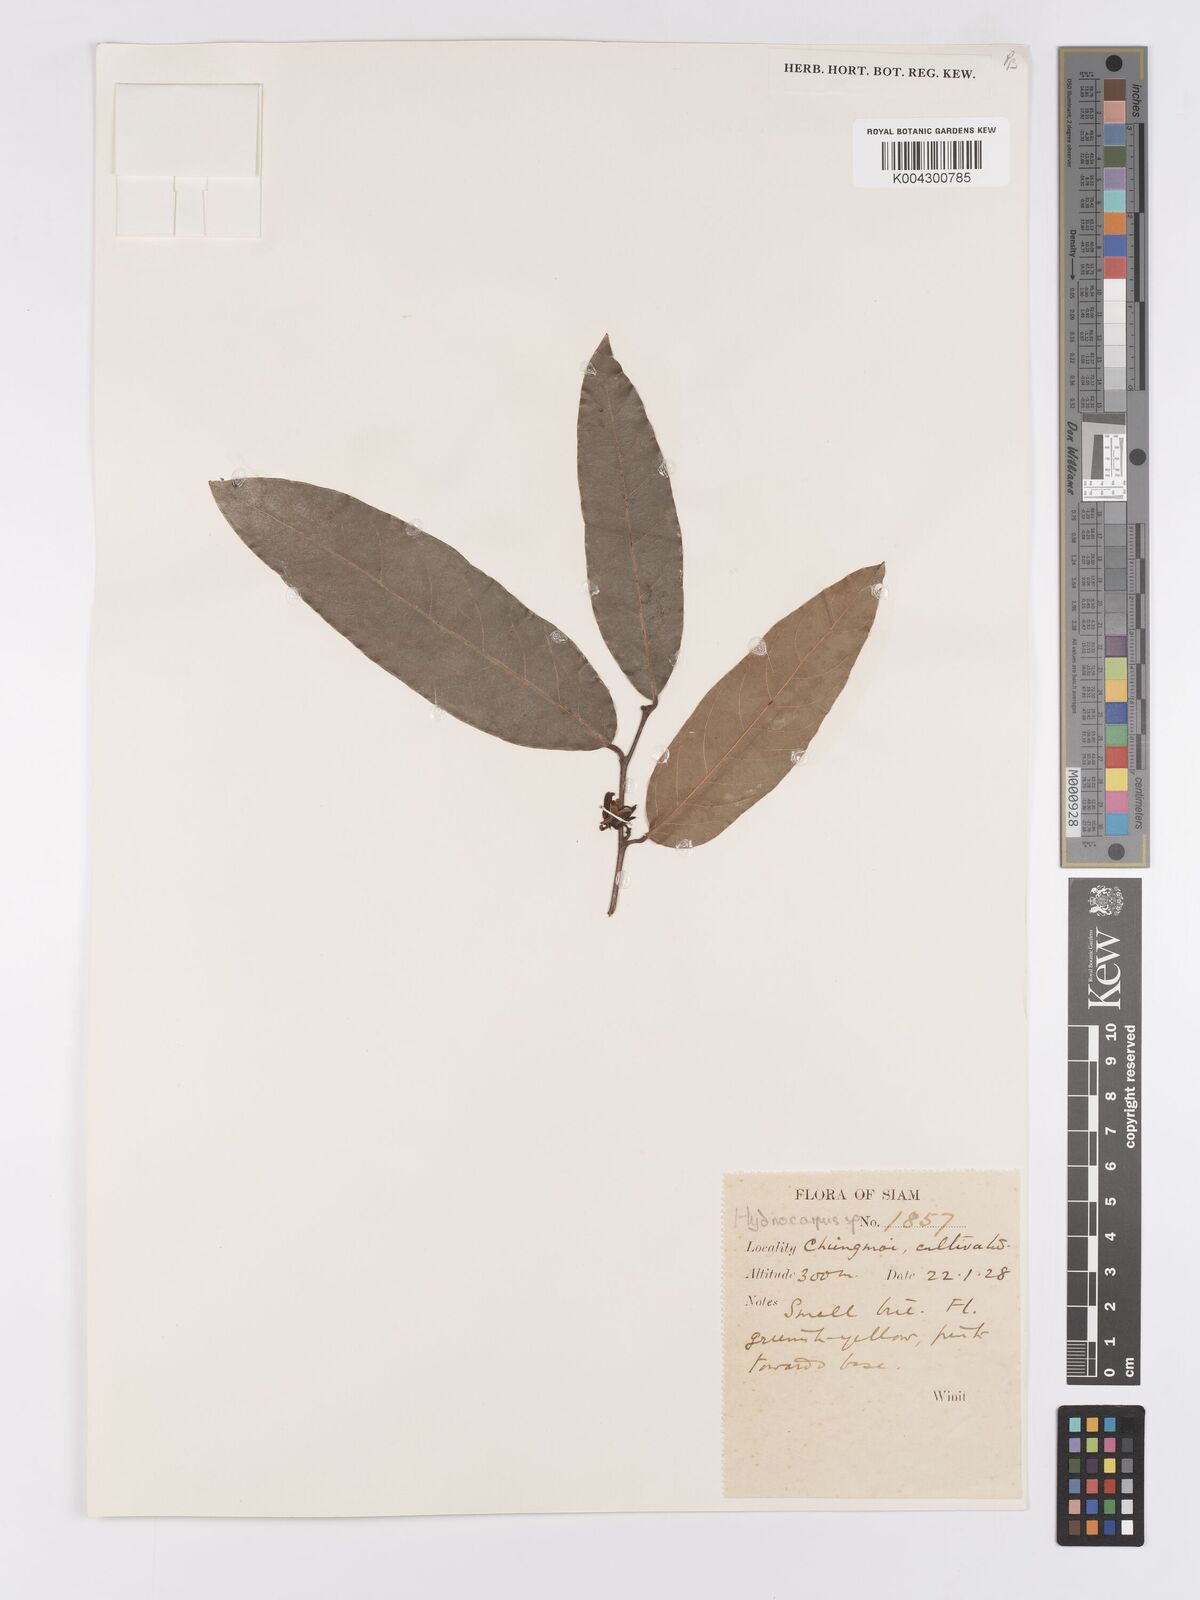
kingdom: Plantae
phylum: Tracheophyta
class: Magnoliopsida
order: Malpighiales
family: Achariaceae
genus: Hydnocarpus
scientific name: Hydnocarpus
